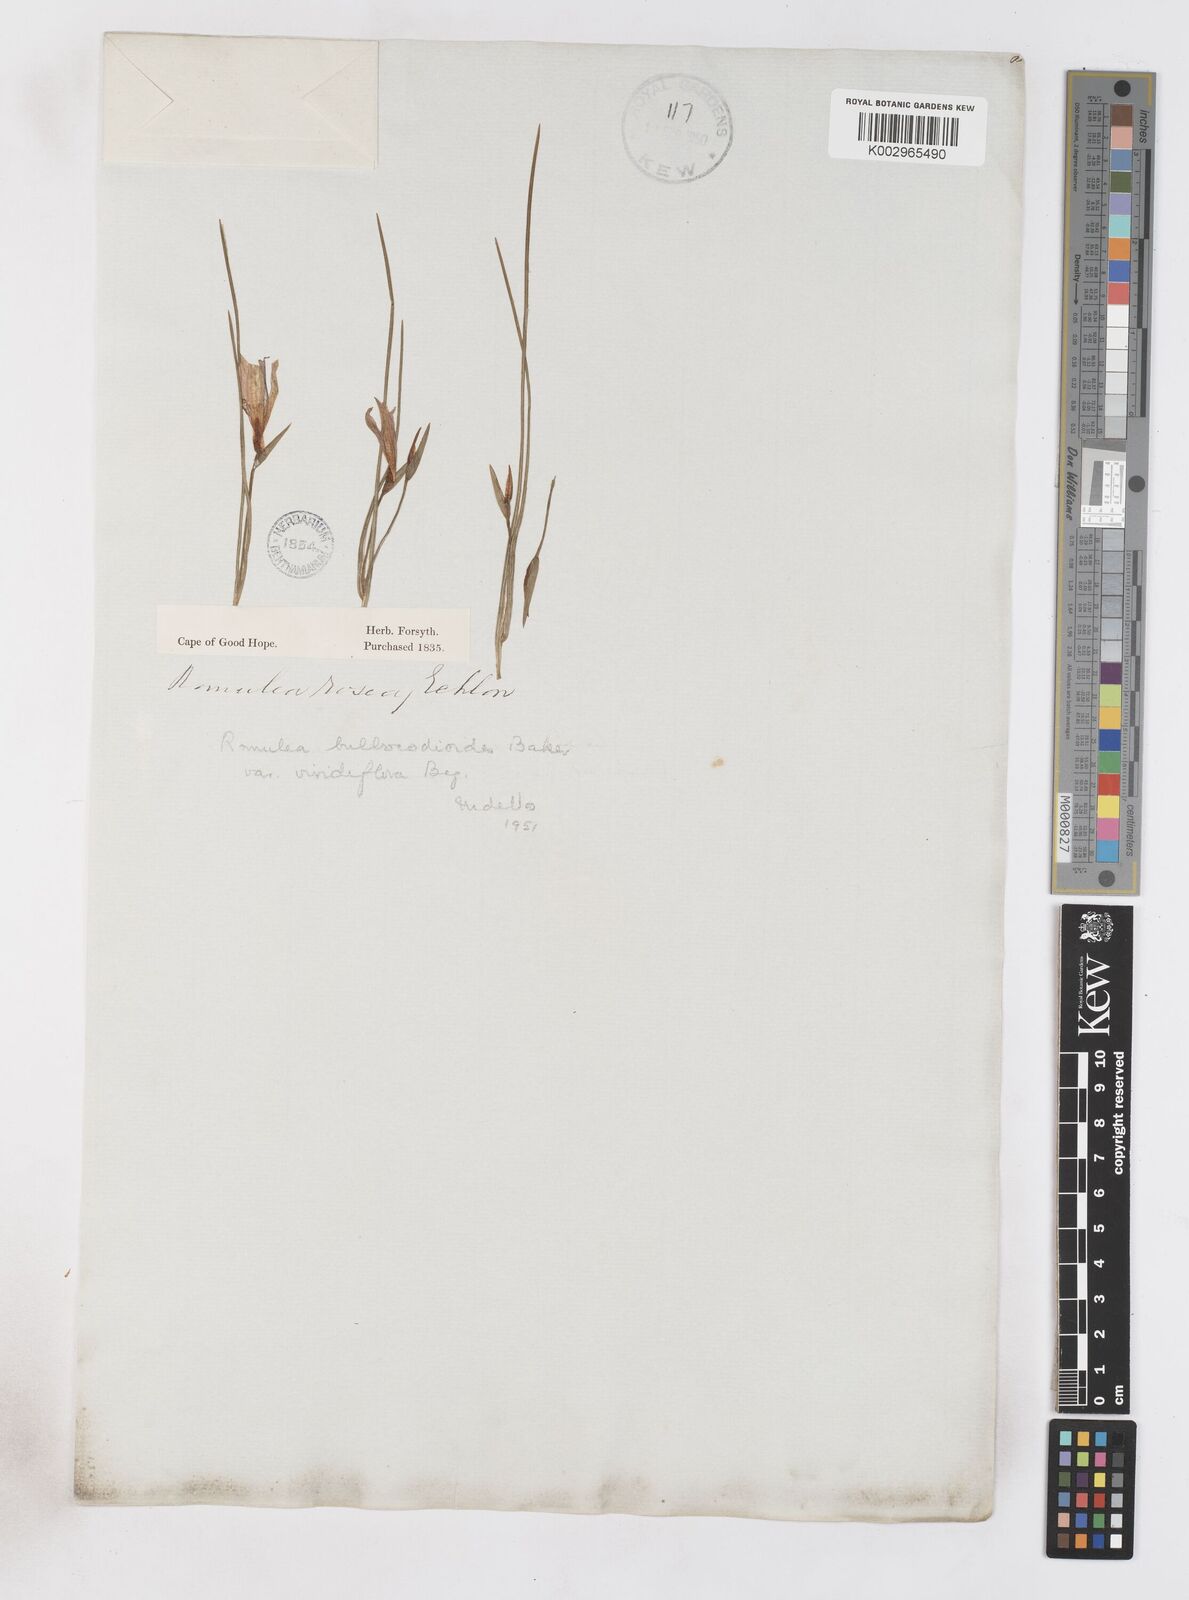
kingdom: Plantae
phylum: Tracheophyta
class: Liliopsida
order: Asparagales
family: Iridaceae
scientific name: Iridaceae
